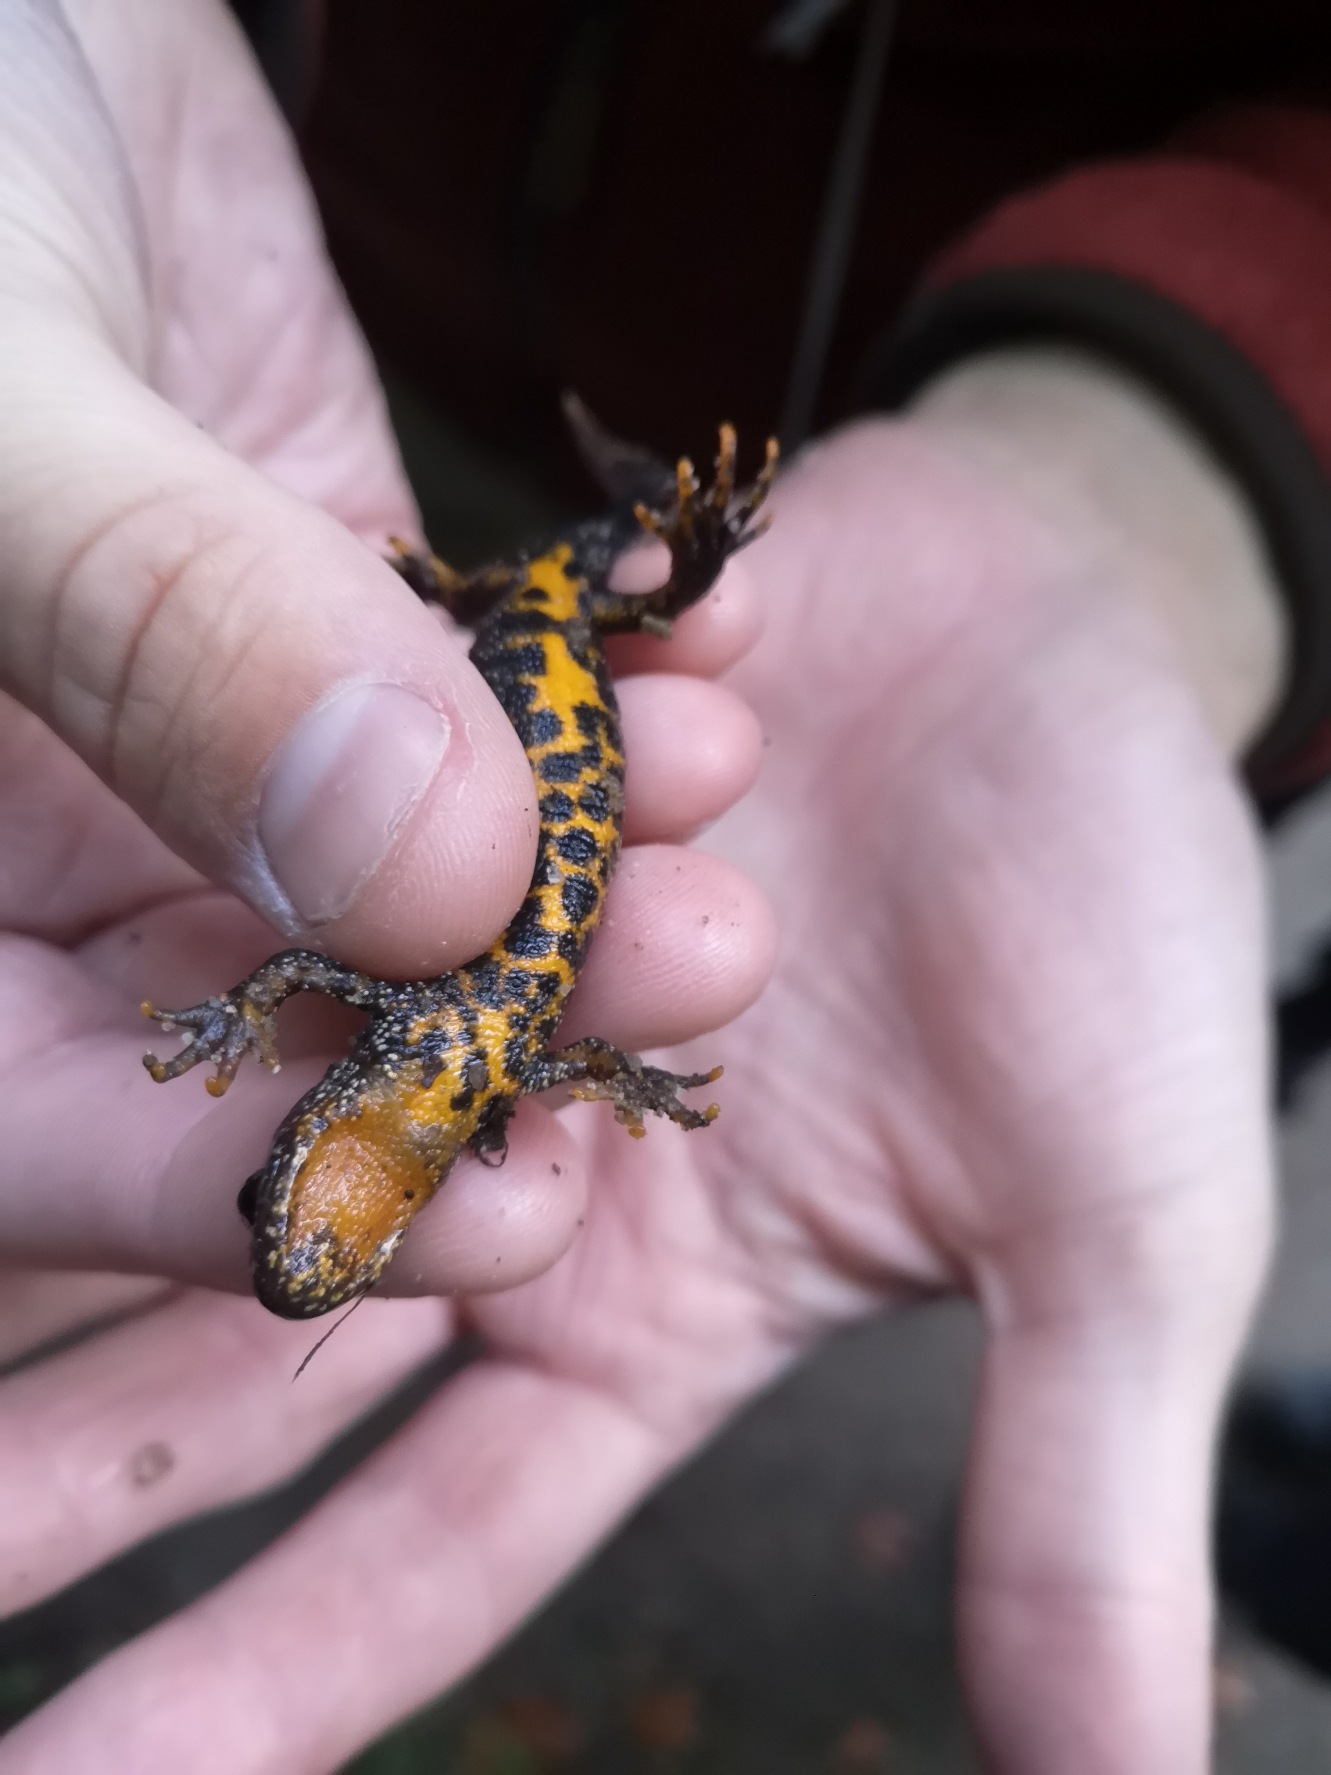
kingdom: Animalia
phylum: Chordata
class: Amphibia
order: Caudata
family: Salamandridae
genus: Triturus
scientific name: Triturus cristatus
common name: Stor vandsalamander
